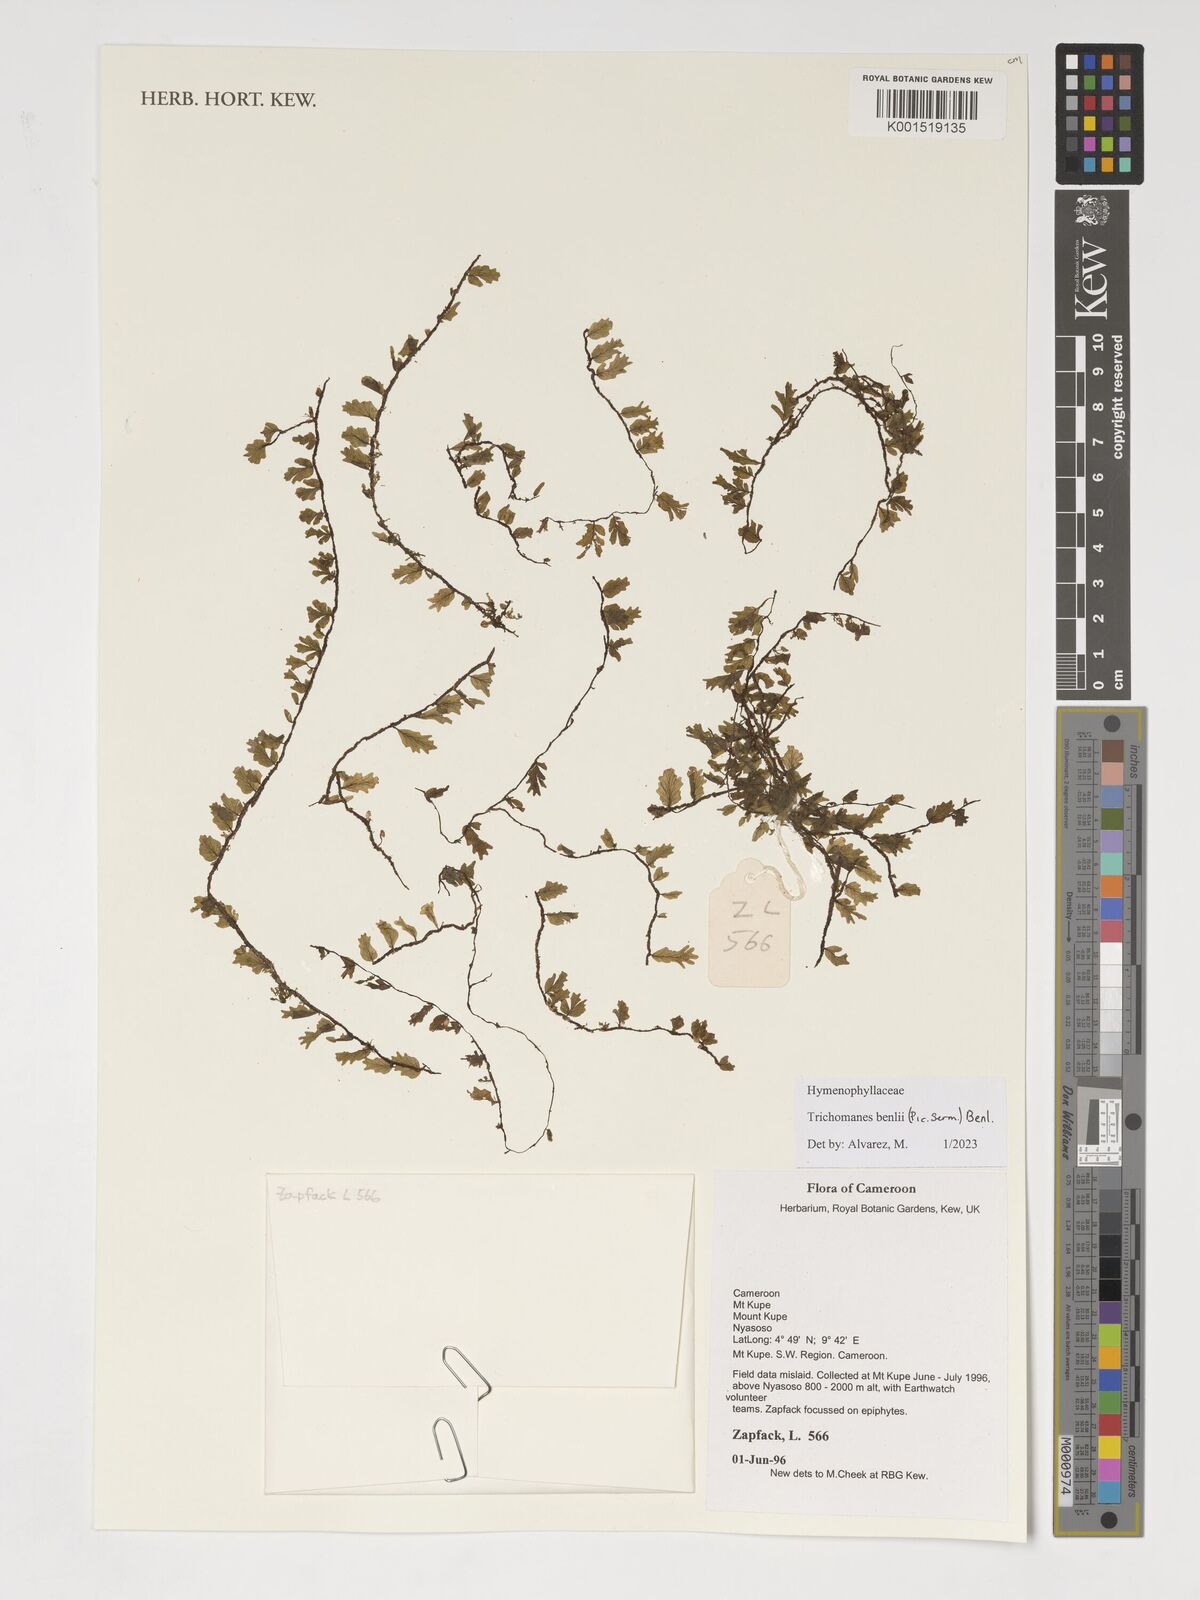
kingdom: Plantae
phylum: Tracheophyta
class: Polypodiopsida
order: Hymenophyllales
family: Hymenophyllaceae
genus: Didymoglossum
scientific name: Didymoglossum benlii
